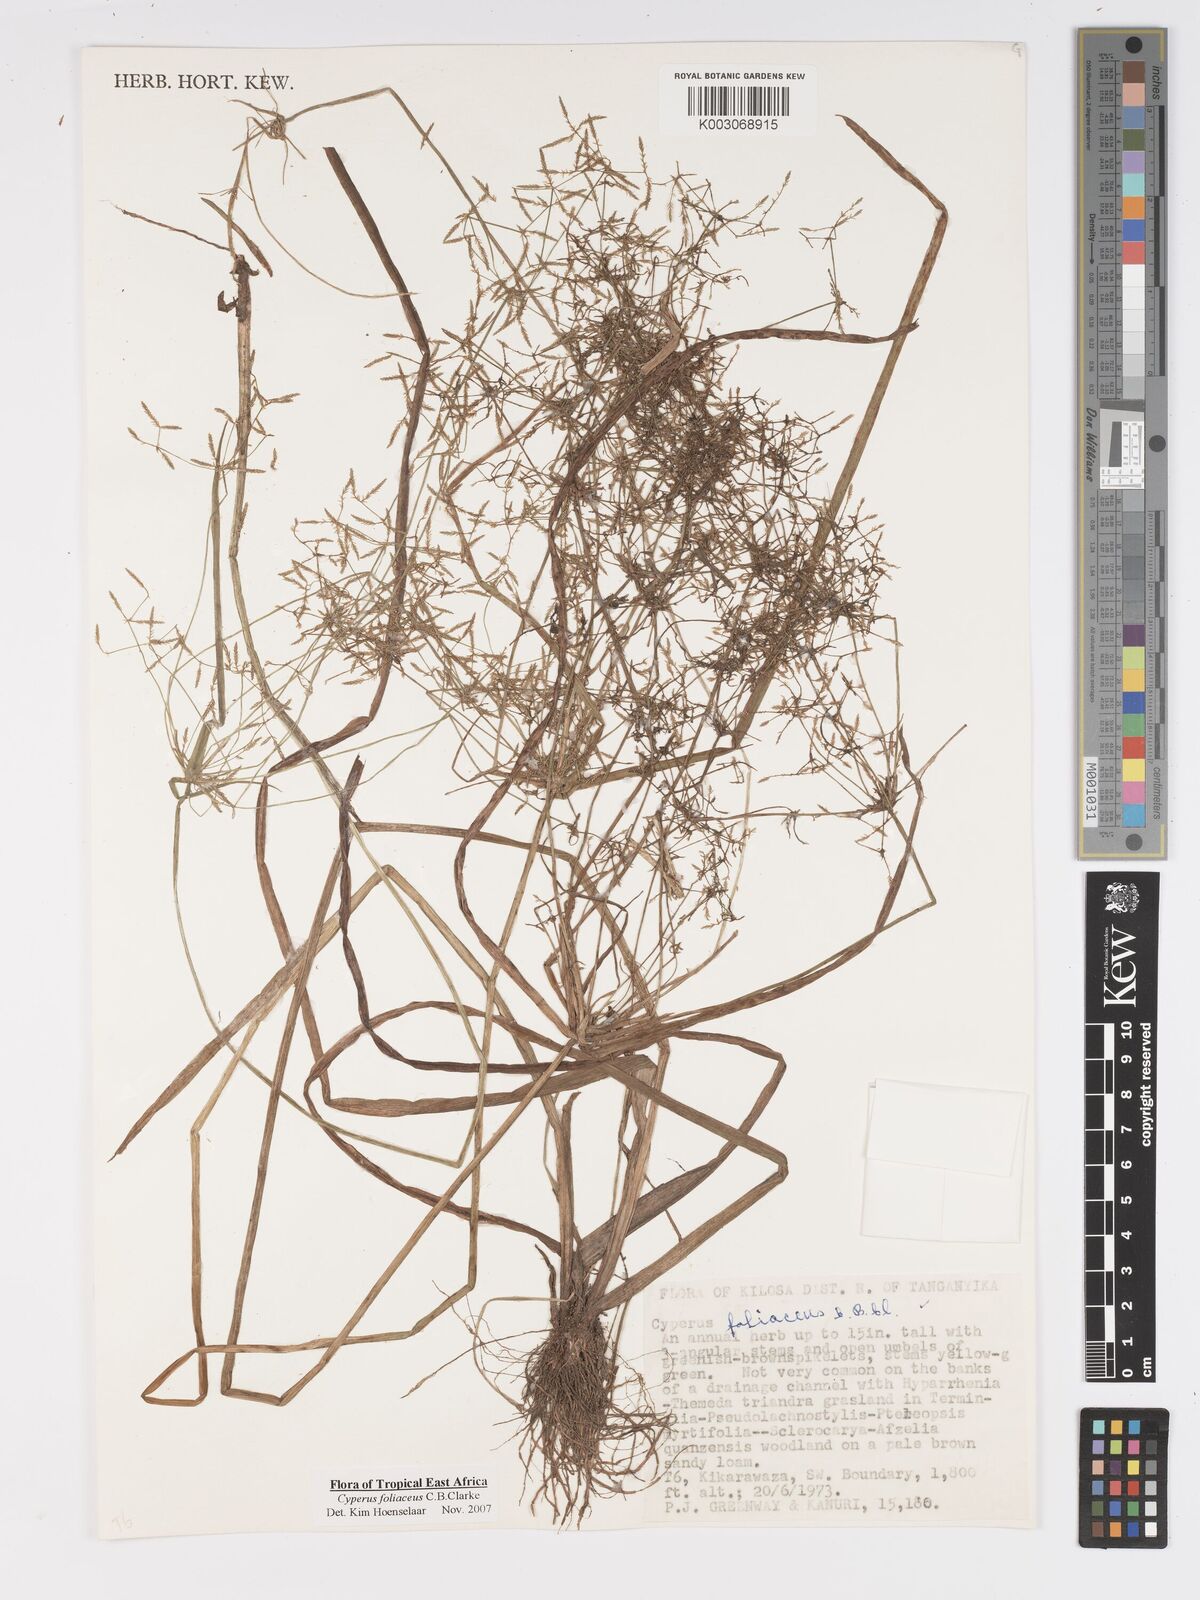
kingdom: Plantae
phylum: Tracheophyta
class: Liliopsida
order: Poales
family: Cyperaceae
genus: Cyperus
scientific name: Cyperus foliaceus
